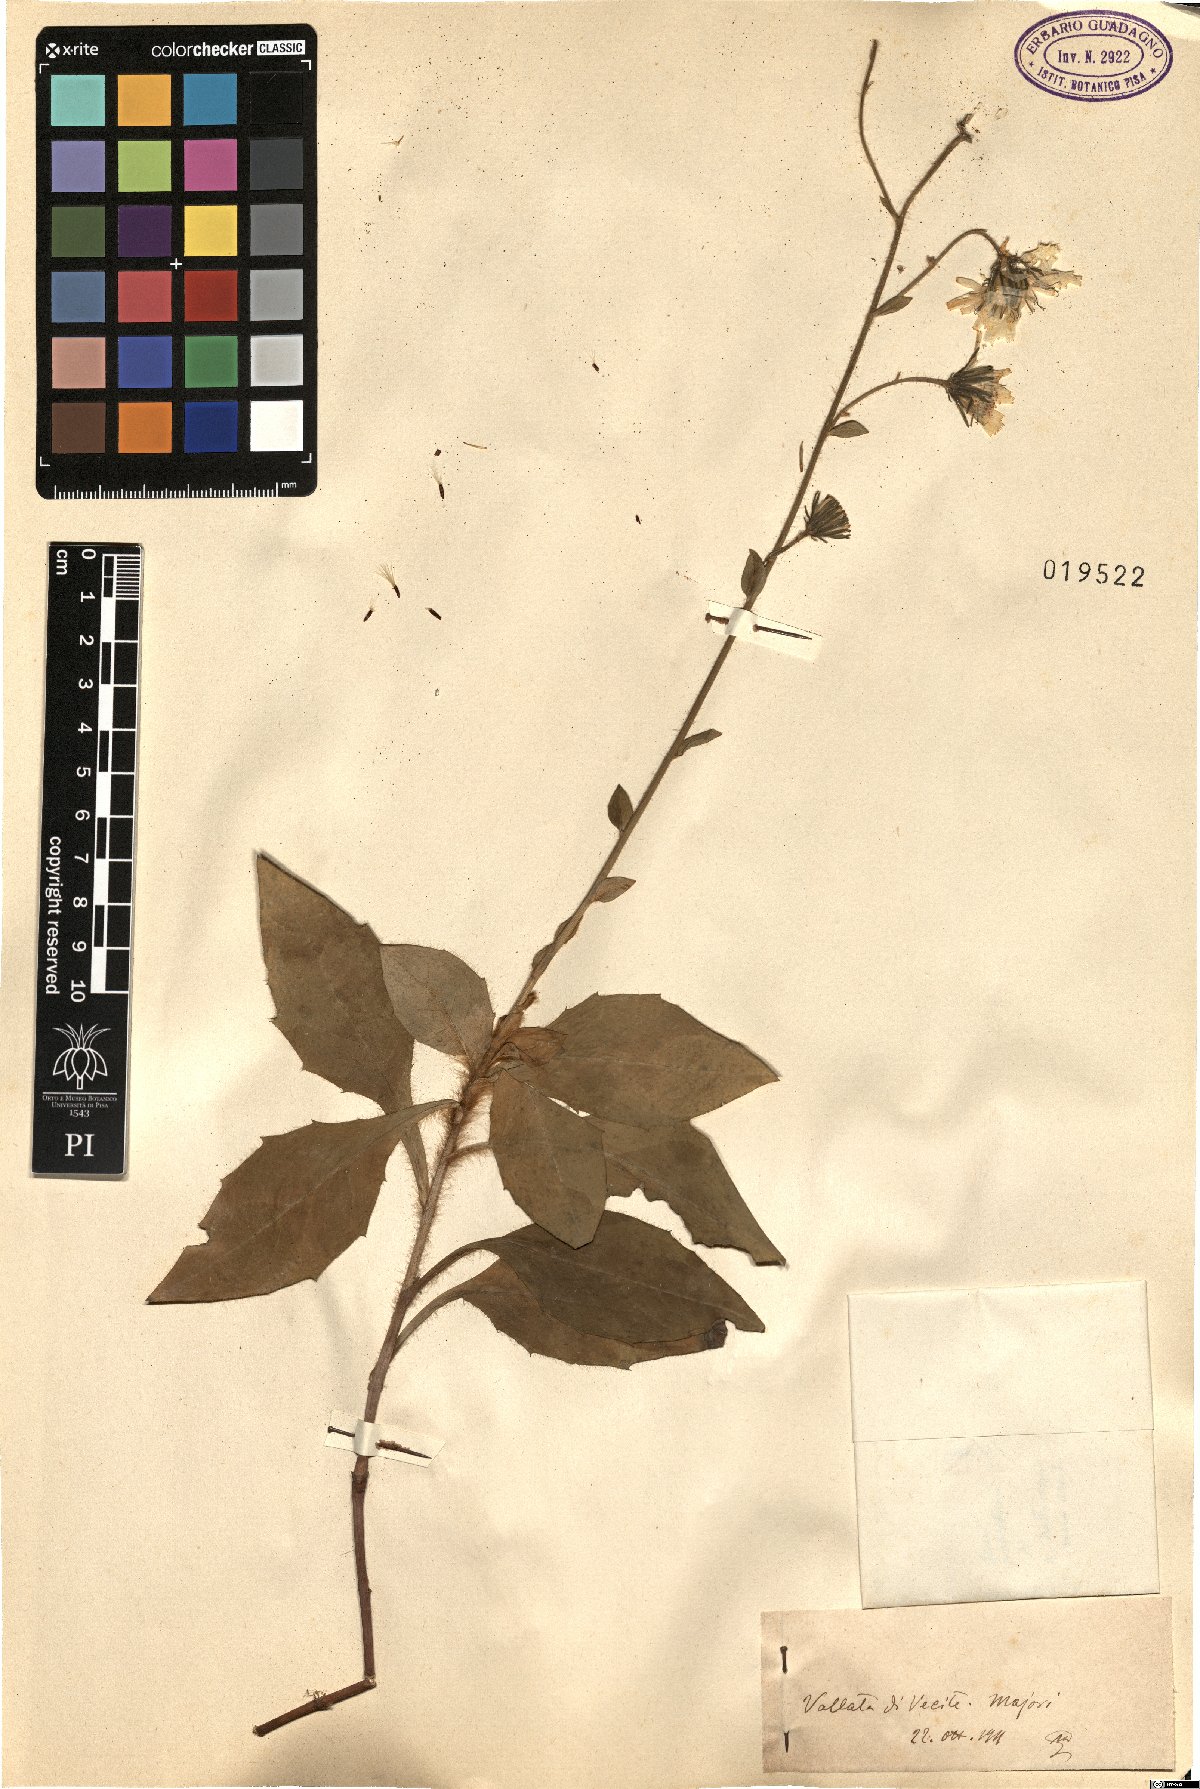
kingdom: Plantae
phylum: Tracheophyta
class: Magnoliopsida
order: Asterales
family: Asteraceae
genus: Hieracium
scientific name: Hieracium
